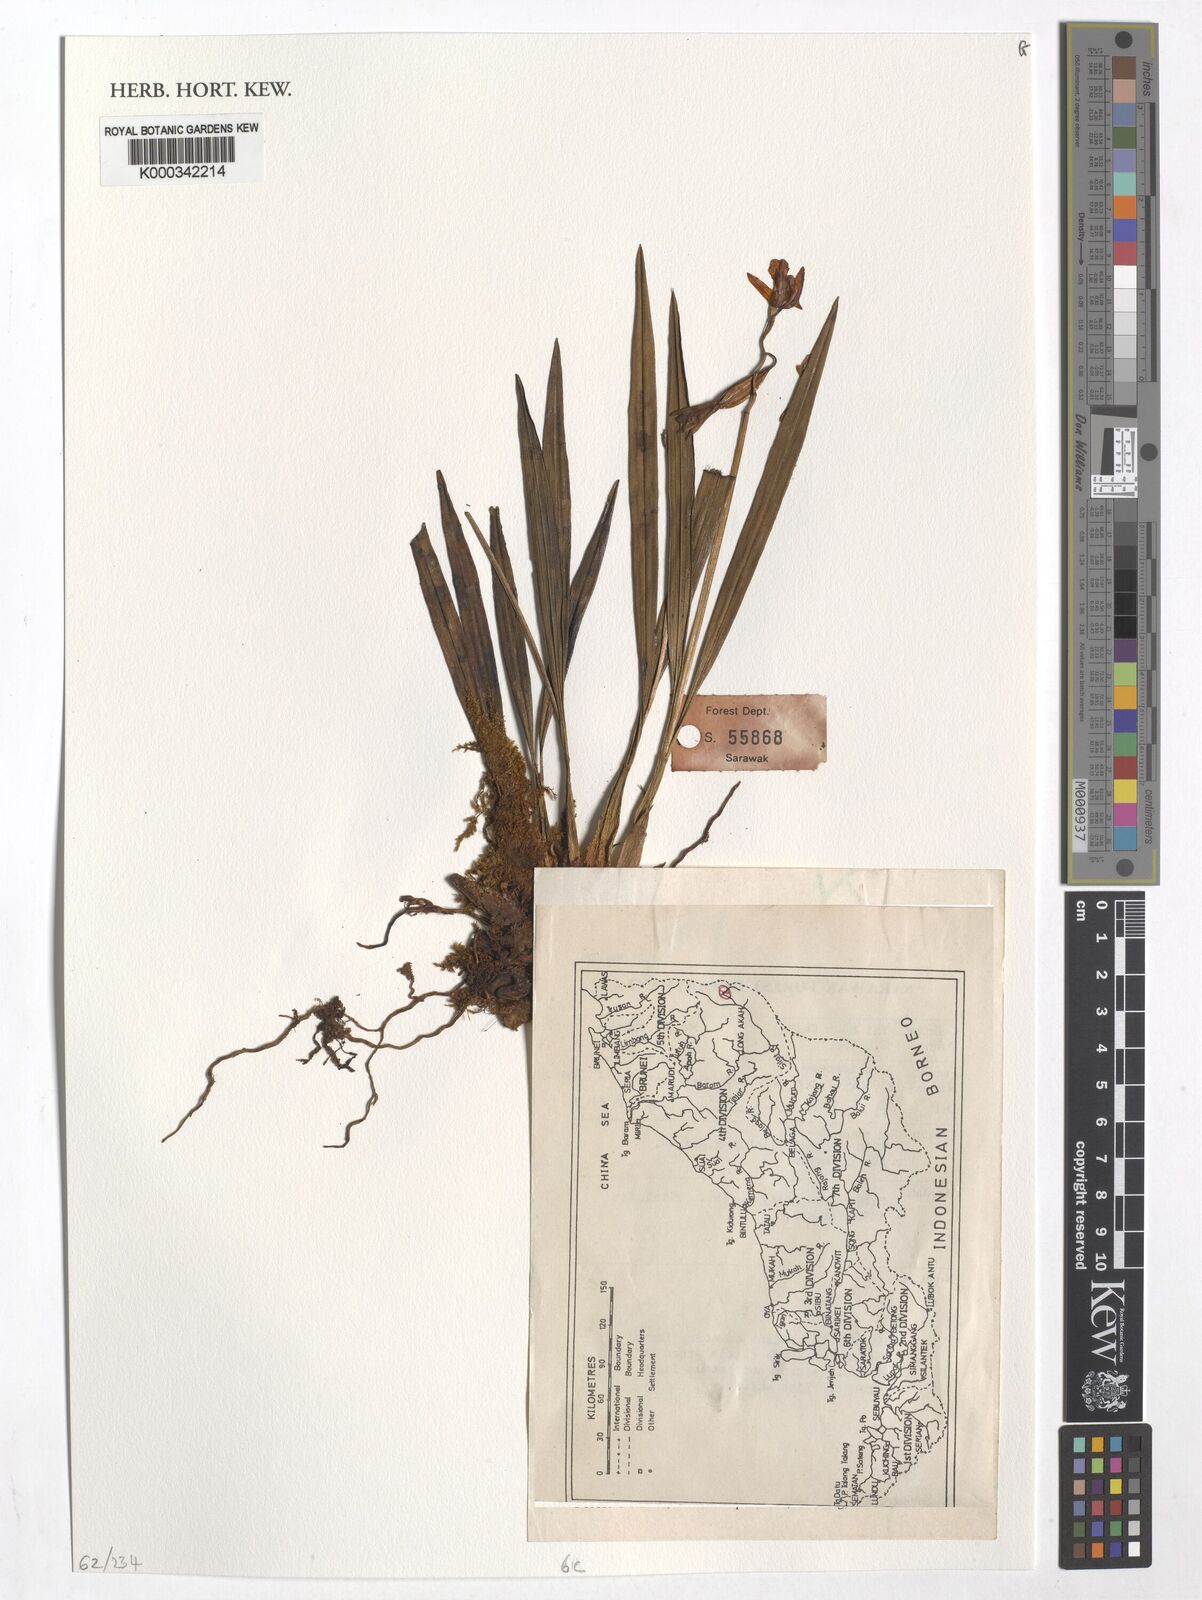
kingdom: Plantae
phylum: Tracheophyta
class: Liliopsida
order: Asparagales
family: Orchidaceae
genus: Coelogyne
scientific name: Coelogyne tenompokensis
